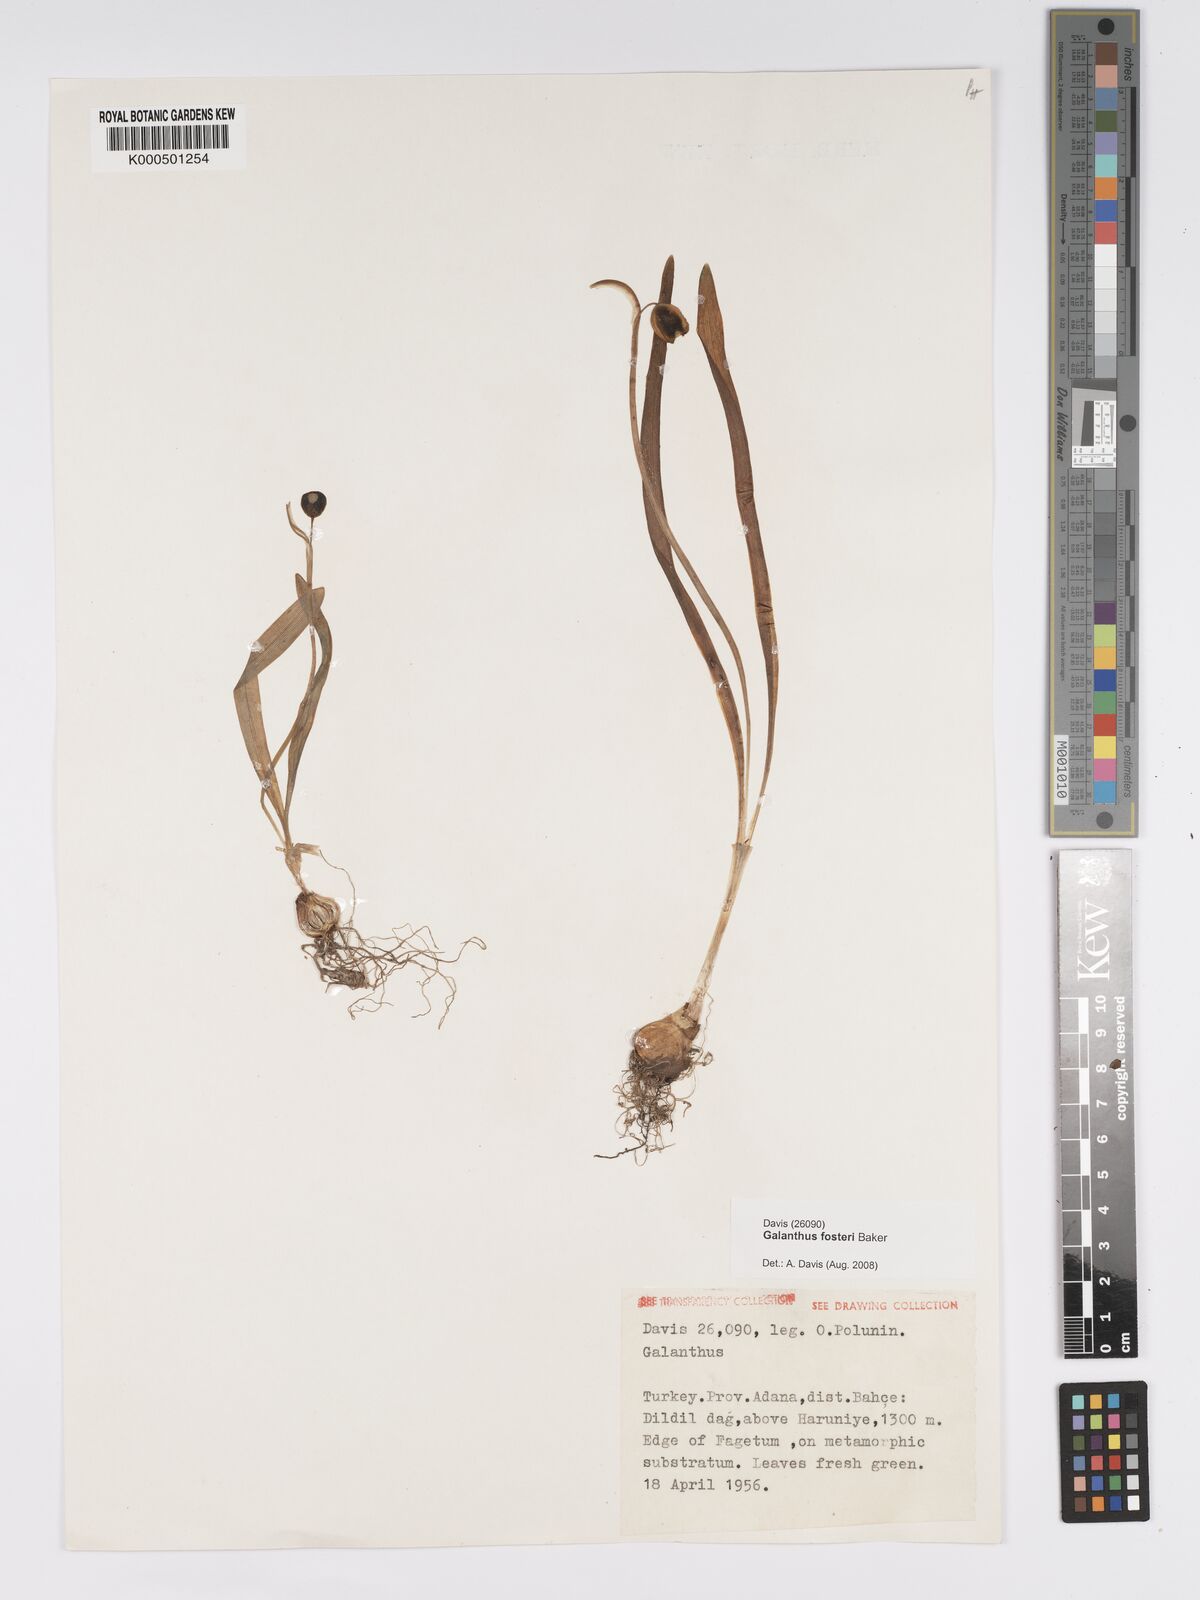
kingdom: Plantae
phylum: Tracheophyta
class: Liliopsida
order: Asparagales
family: Amaryllidaceae
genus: Galanthus
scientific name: Galanthus fosteri
